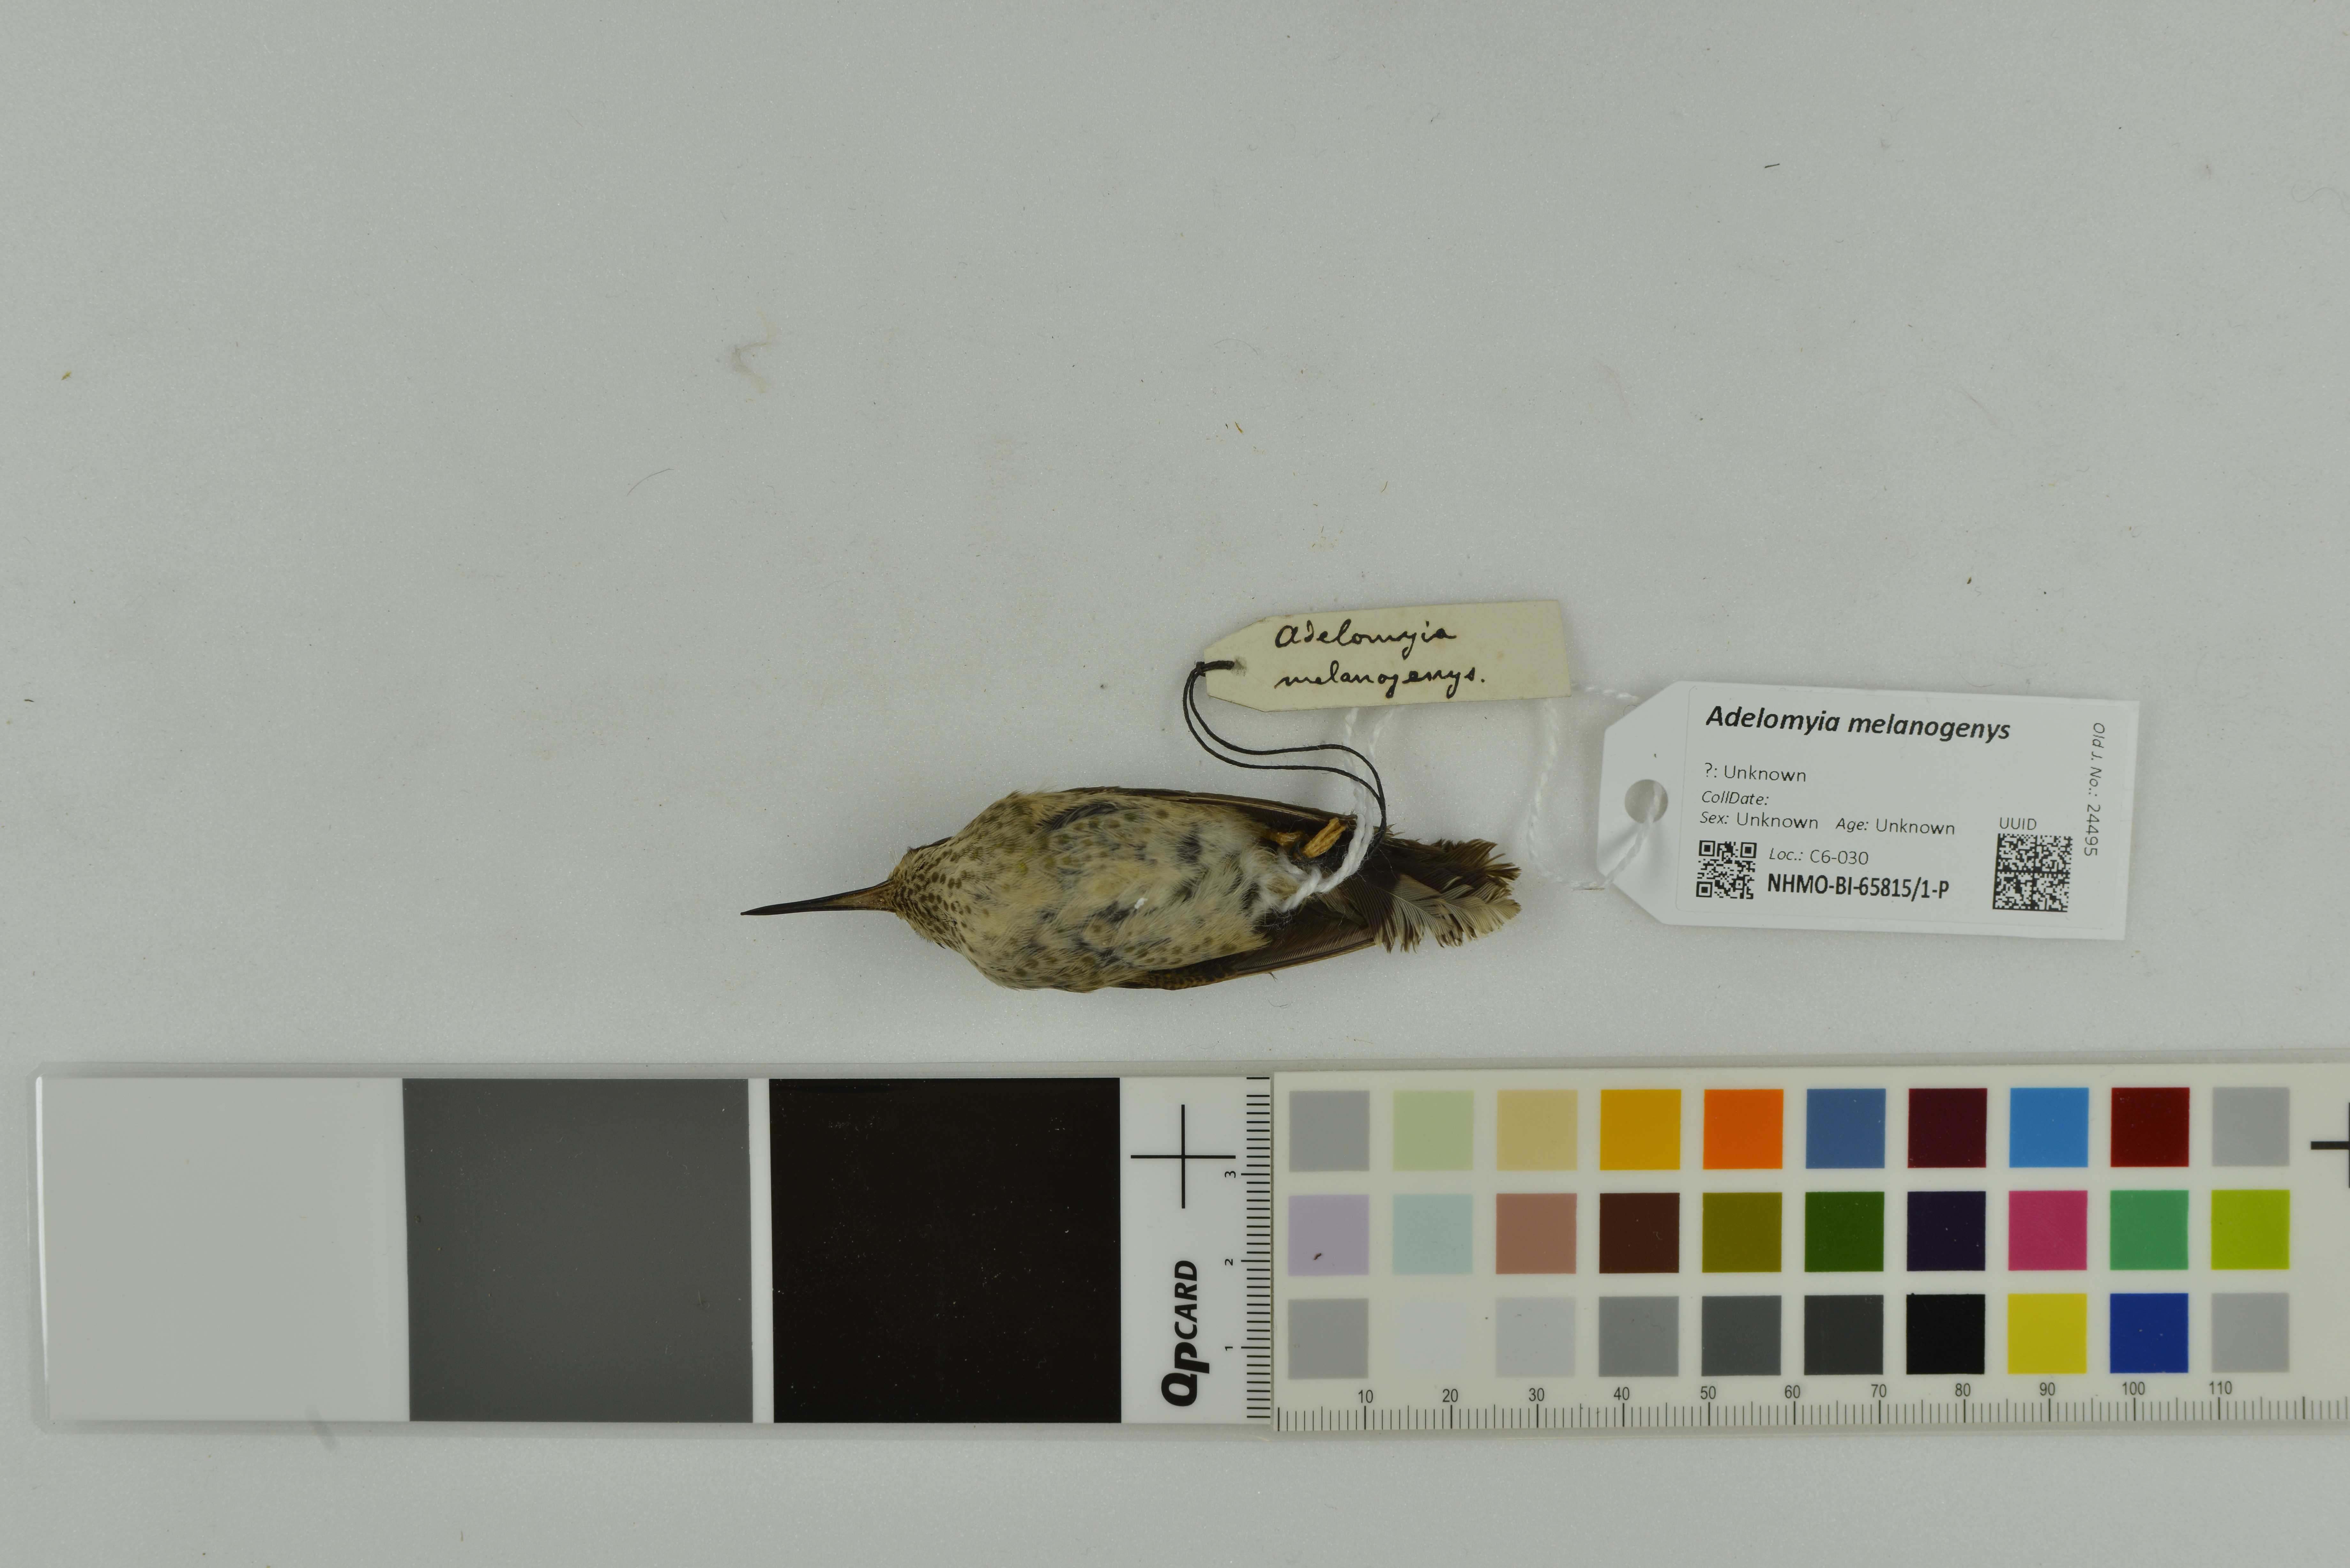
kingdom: Animalia
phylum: Chordata
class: Aves
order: Apodiformes
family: Trochilidae
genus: Adelomyia
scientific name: Adelomyia melanogenys
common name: Speckled hummingbird
